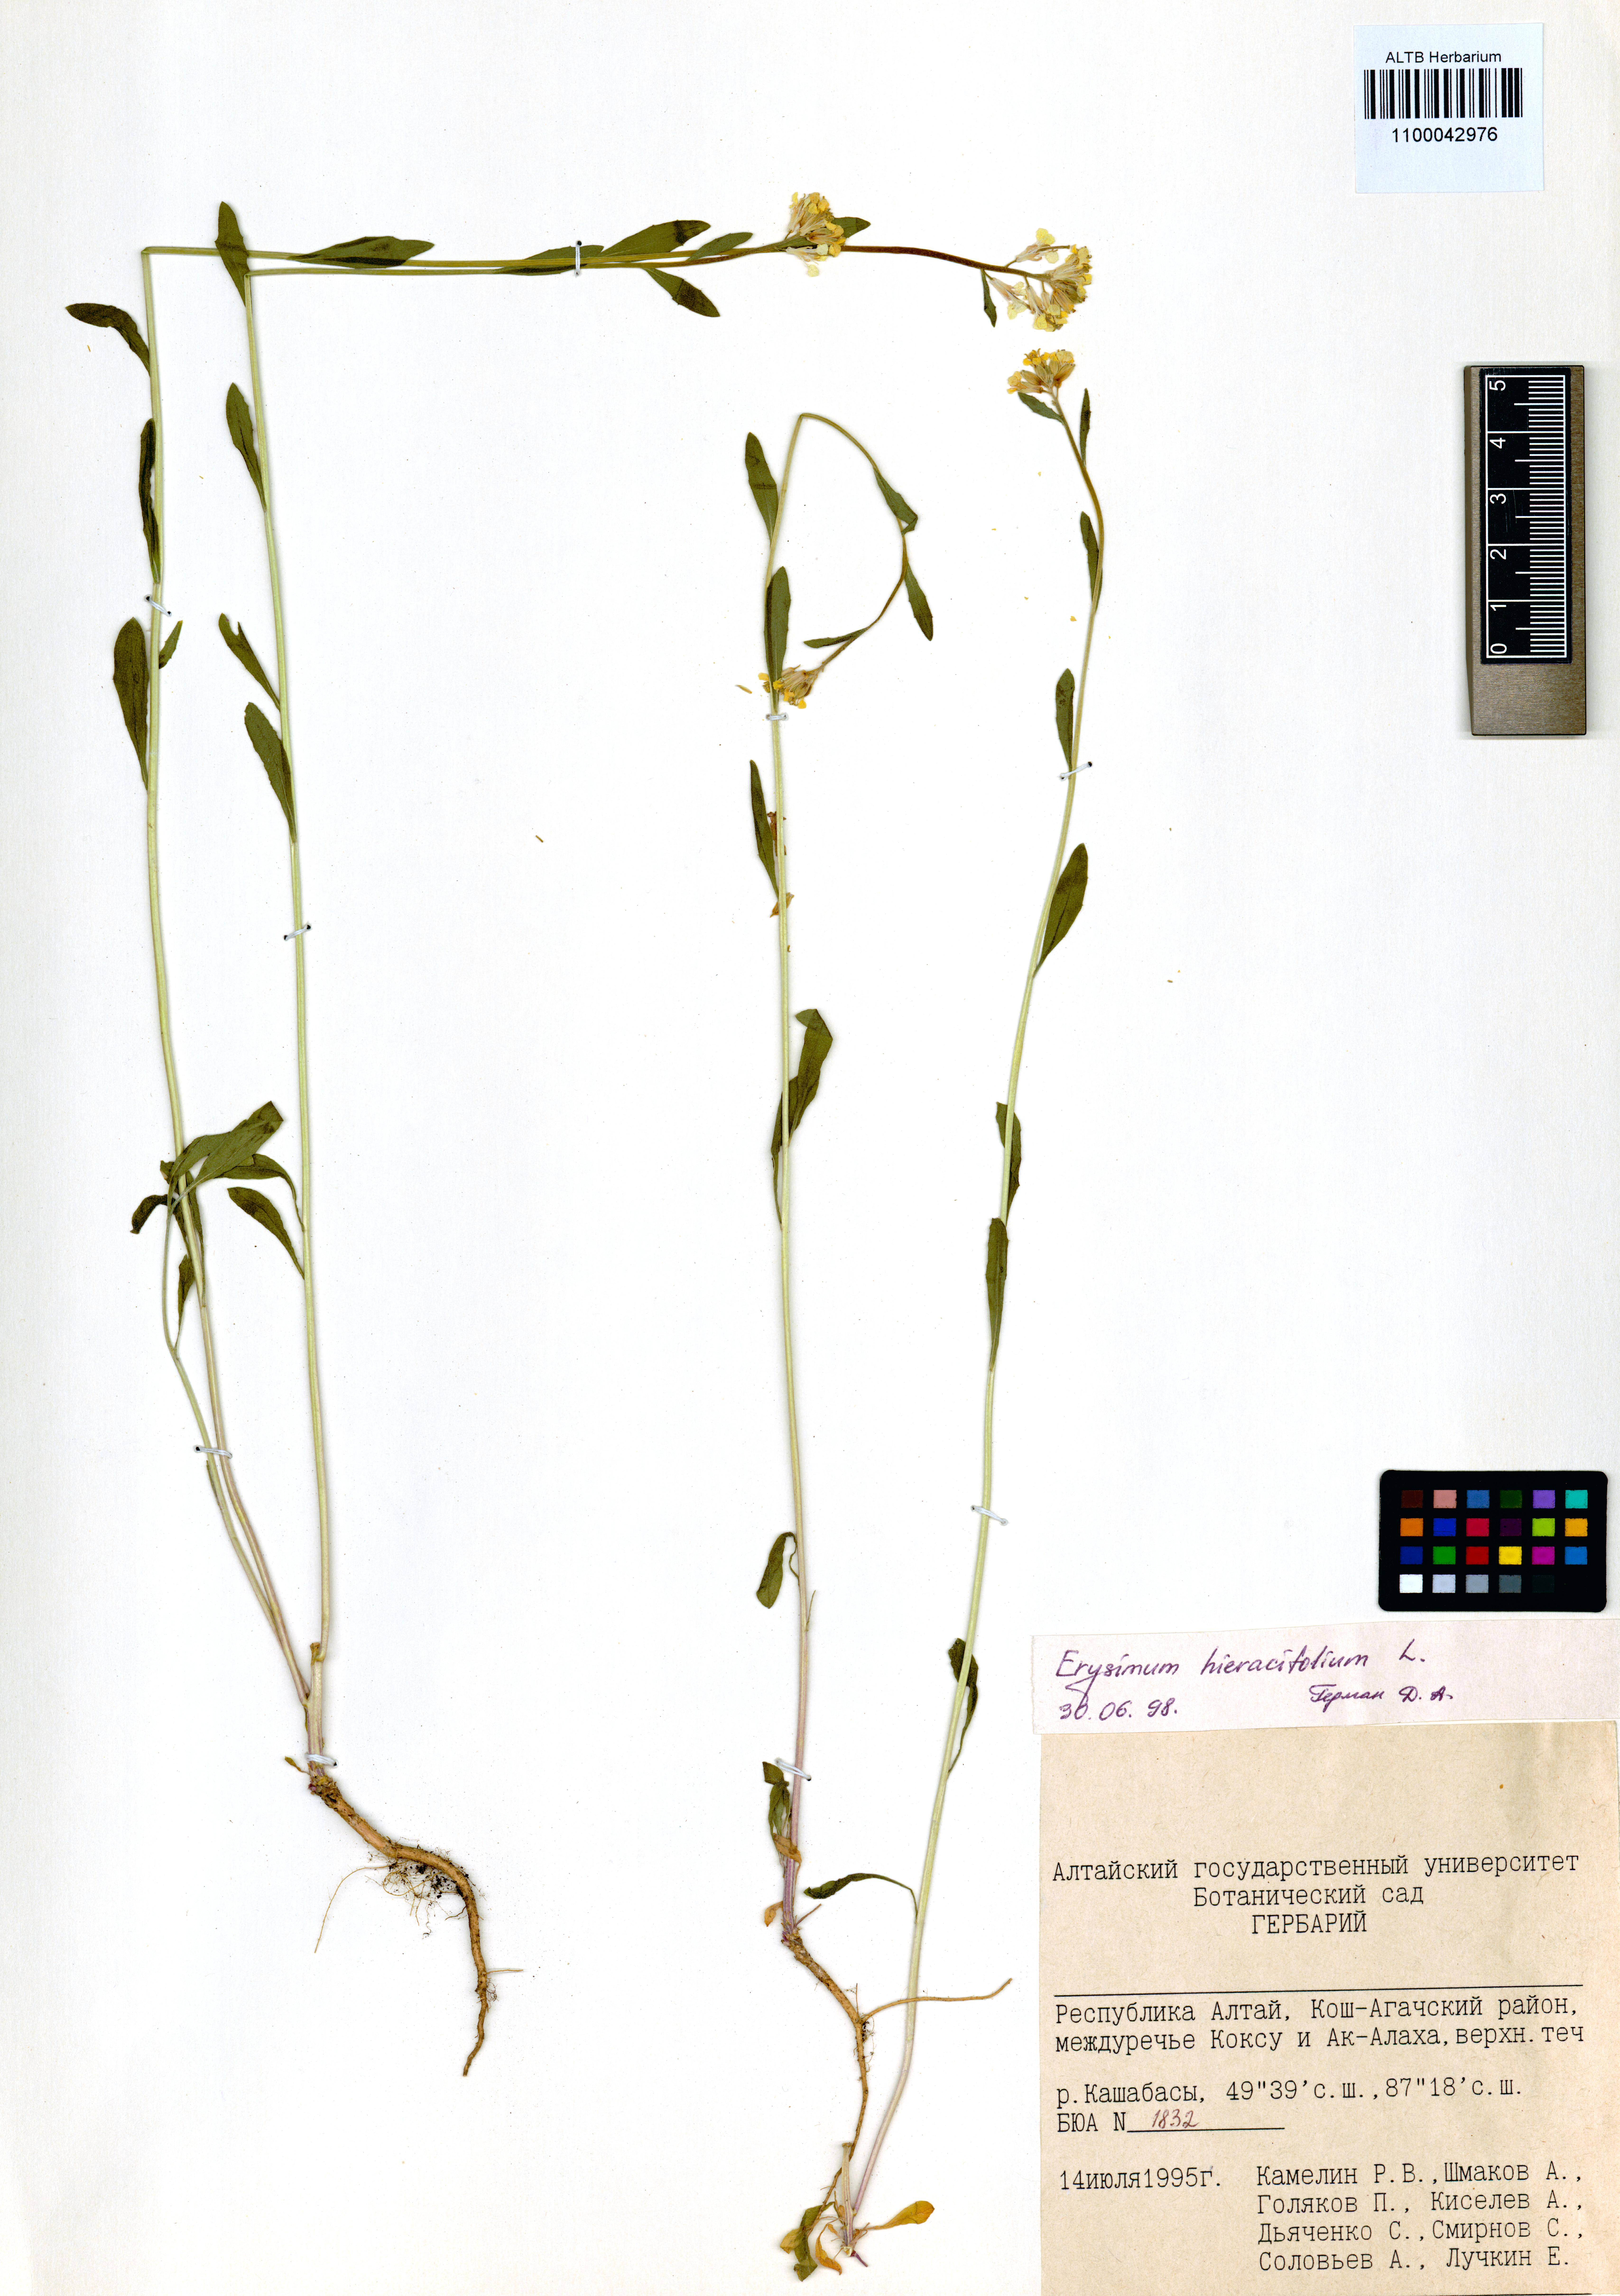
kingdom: Plantae
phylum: Tracheophyta
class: Magnoliopsida
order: Brassicales
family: Brassicaceae
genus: Erysimum
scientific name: Erysimum hieraciifolium
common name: European wallflower
